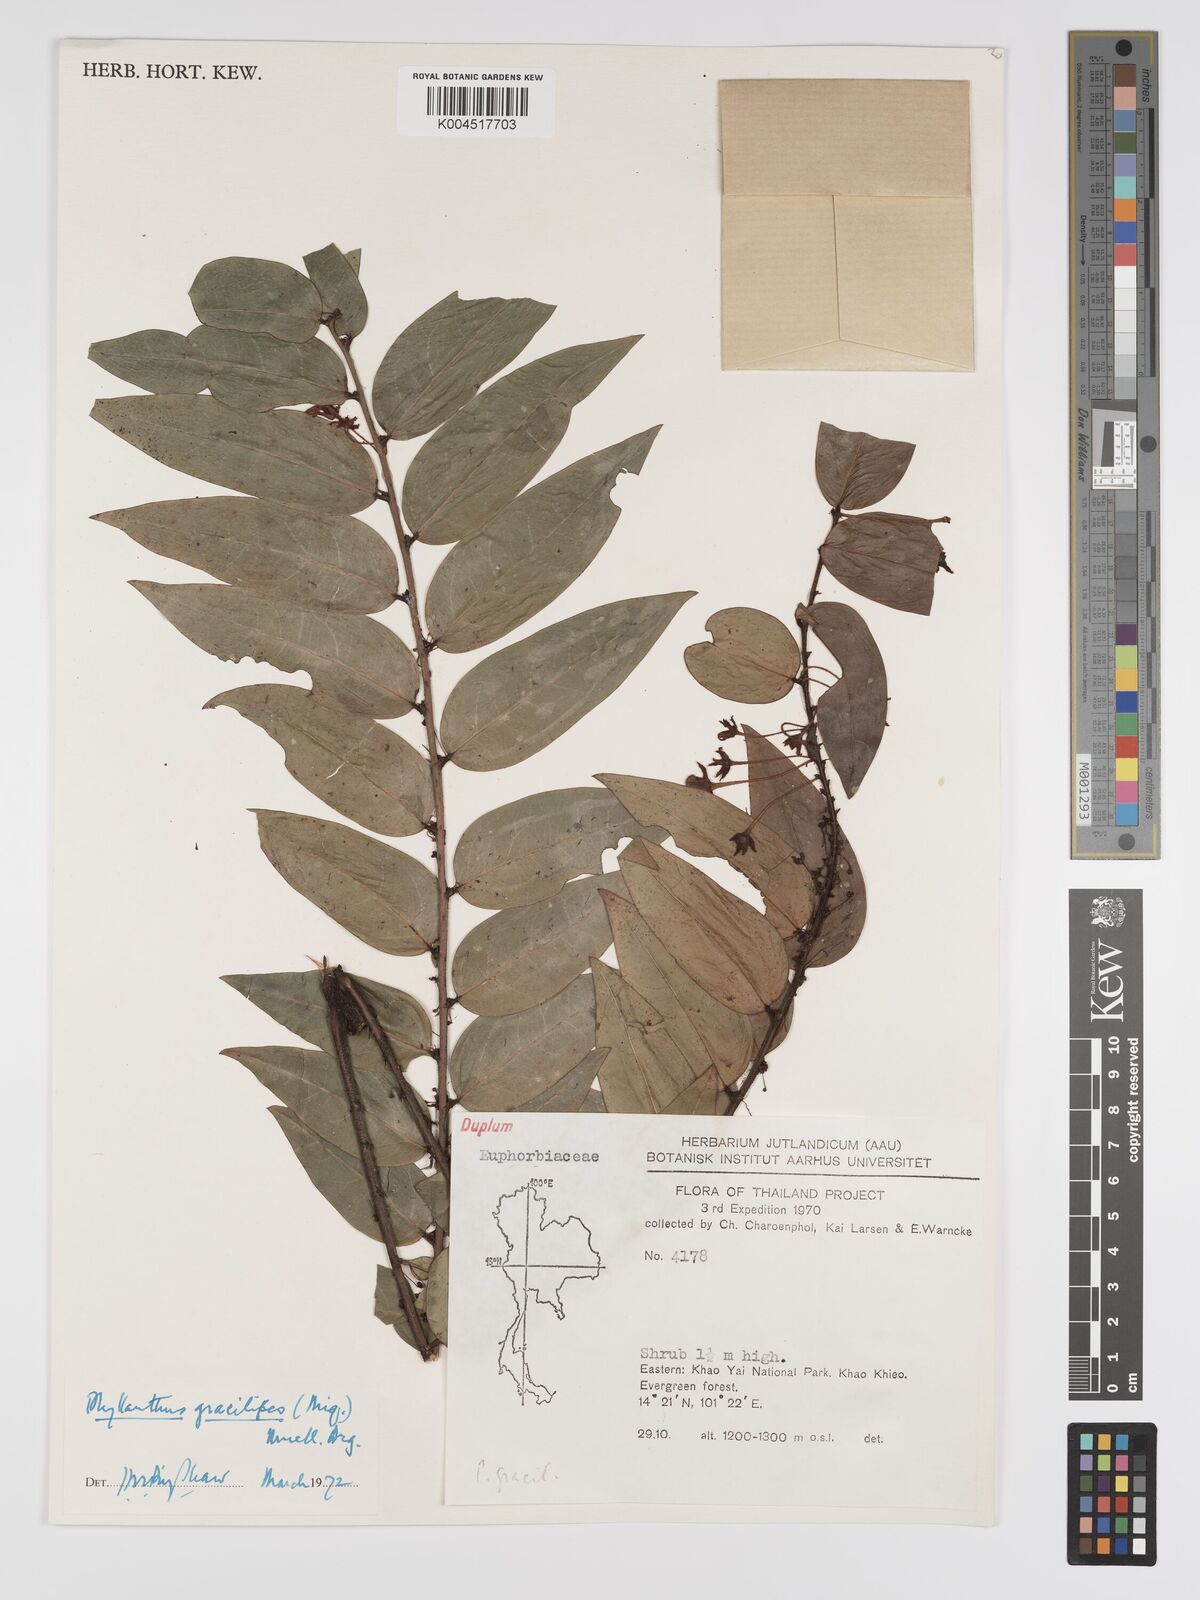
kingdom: Plantae
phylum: Tracheophyta
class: Magnoliopsida
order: Malpighiales
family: Phyllanthaceae
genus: Phyllanthus
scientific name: Phyllanthus
